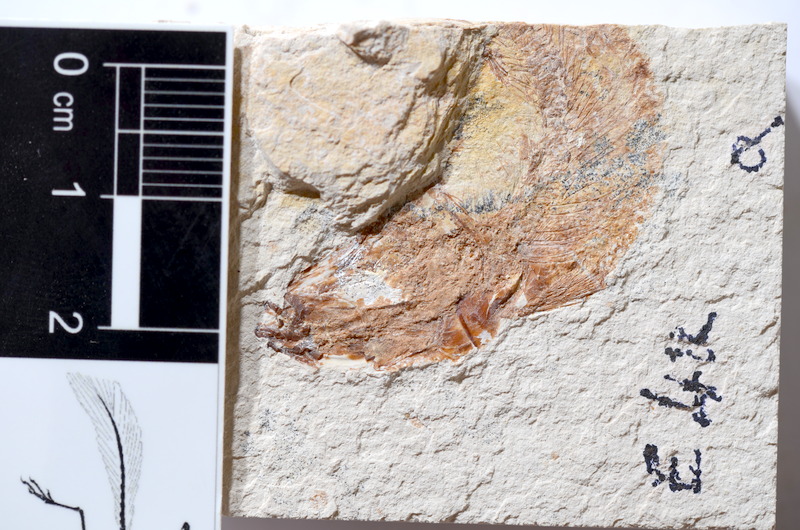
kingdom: Animalia
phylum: Chordata
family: Ascalaboidae
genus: Tharsis
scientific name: Tharsis dubius
